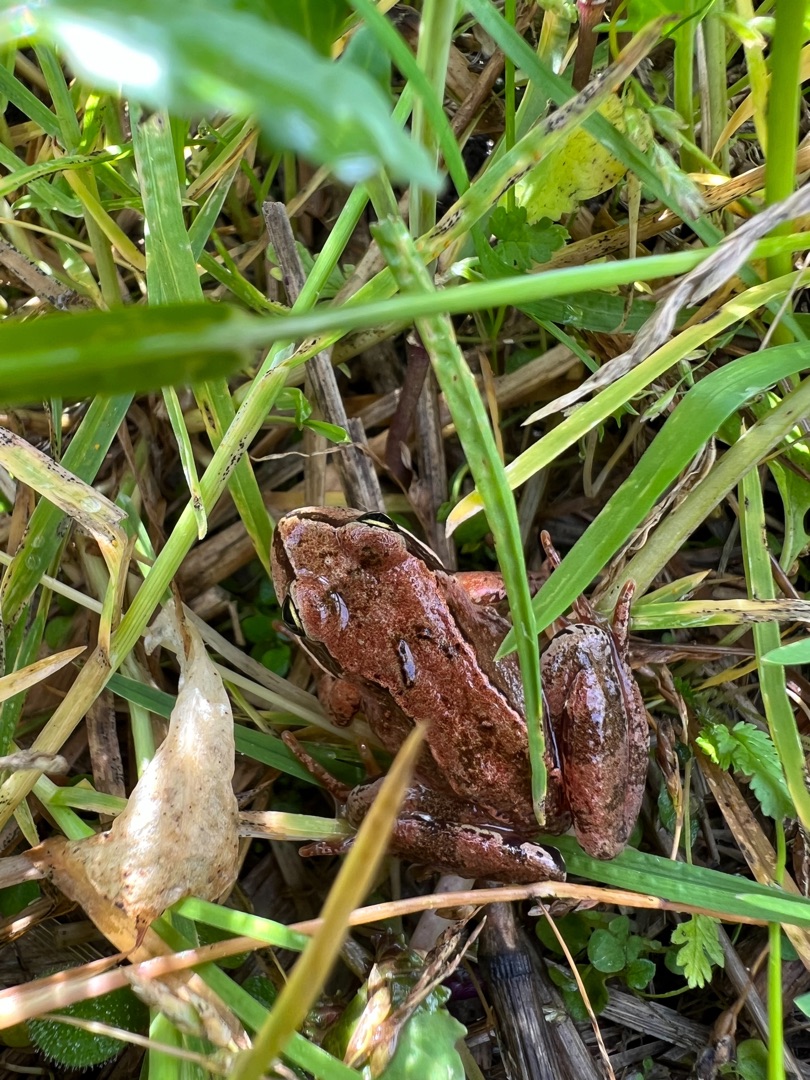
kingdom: Animalia
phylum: Chordata
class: Amphibia
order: Anura
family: Ranidae
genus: Rana
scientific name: Rana temporaria
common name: Butsnudet frø
